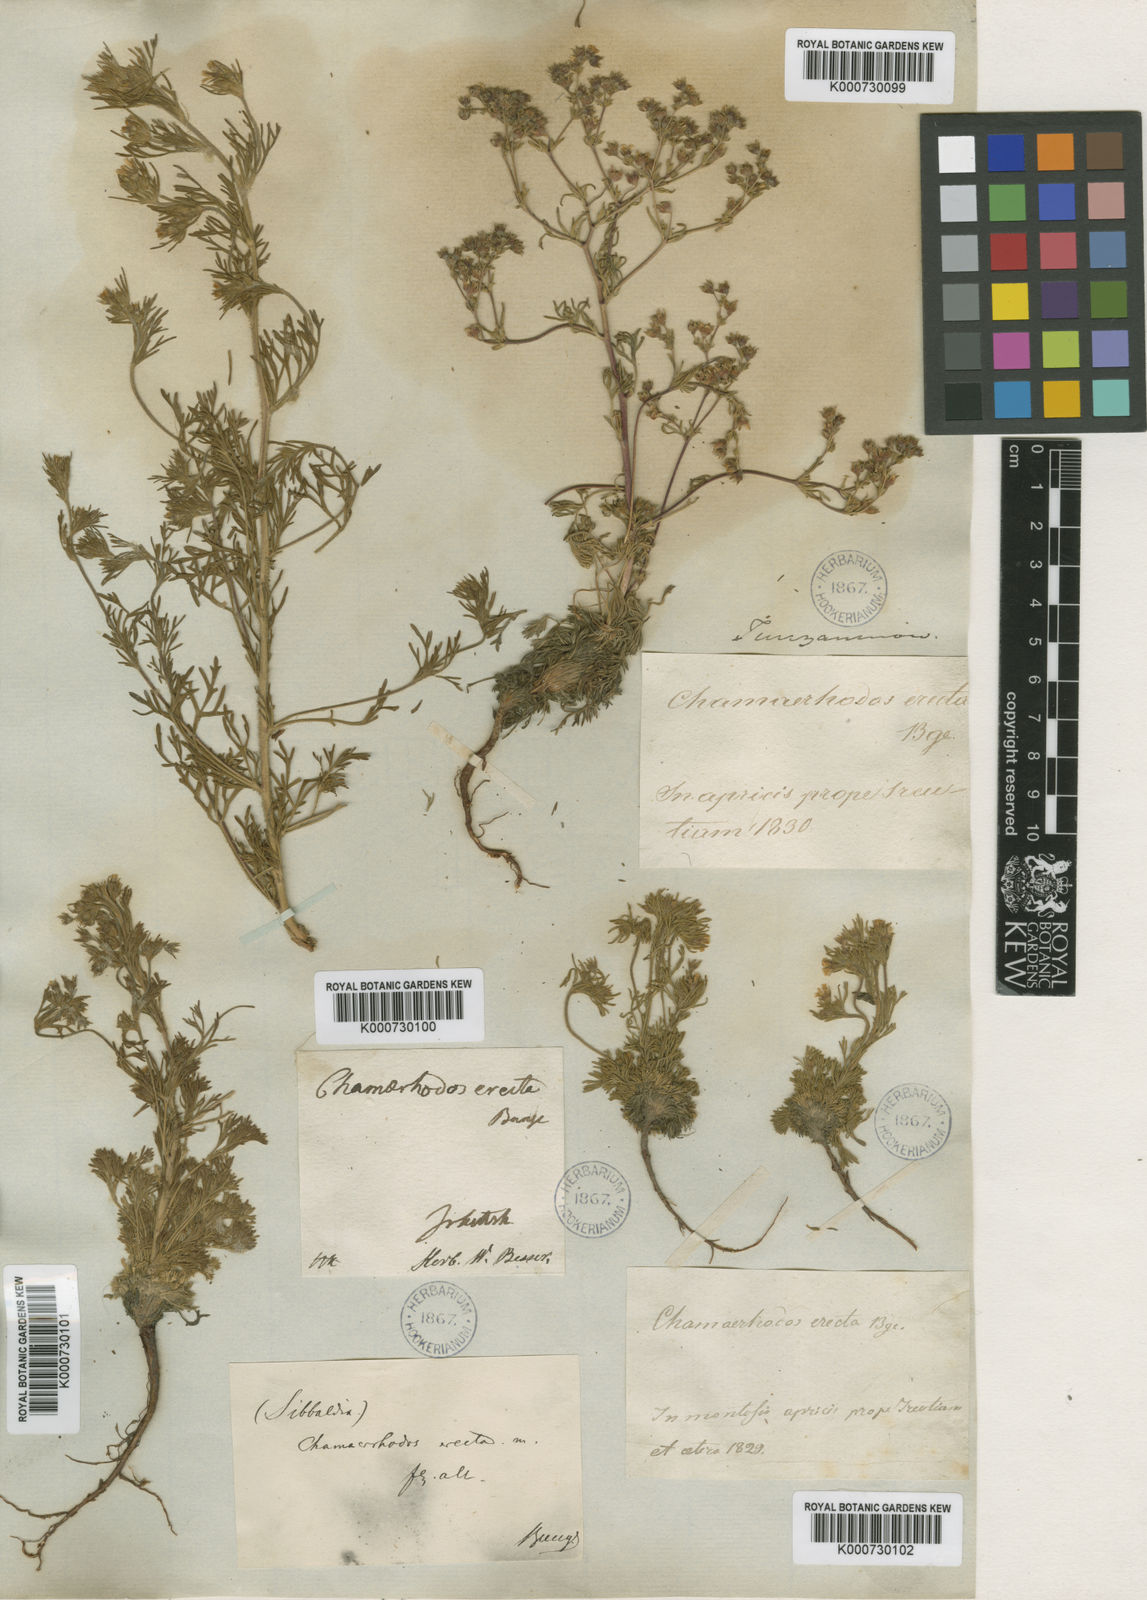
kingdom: Plantae
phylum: Tracheophyta
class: Magnoliopsida
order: Rosales
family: Rosaceae
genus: Chamaerhodos
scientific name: Chamaerhodos erecta
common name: American chamaerhodos
